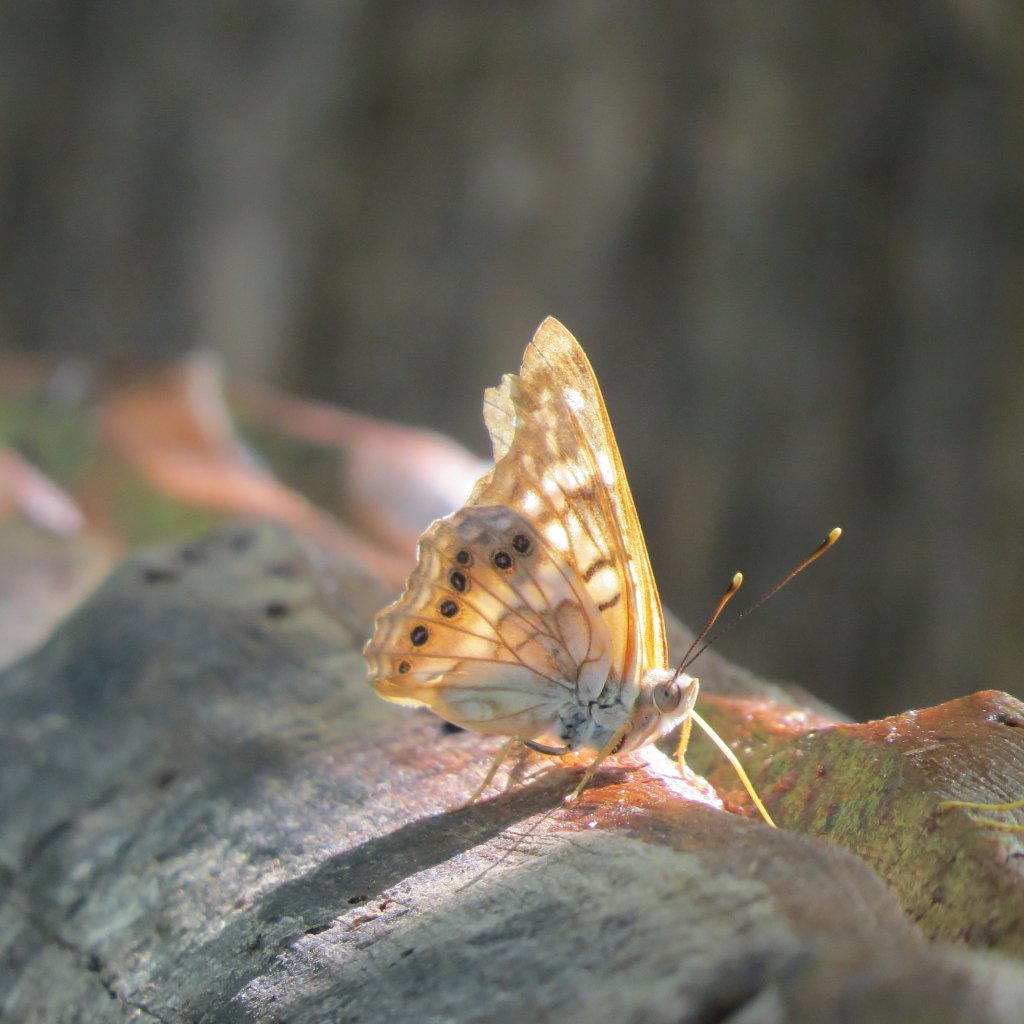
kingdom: Animalia
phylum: Arthropoda
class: Insecta
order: Lepidoptera
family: Nymphalidae
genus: Asterocampa
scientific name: Asterocampa clyton
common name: Tawny Emperor
